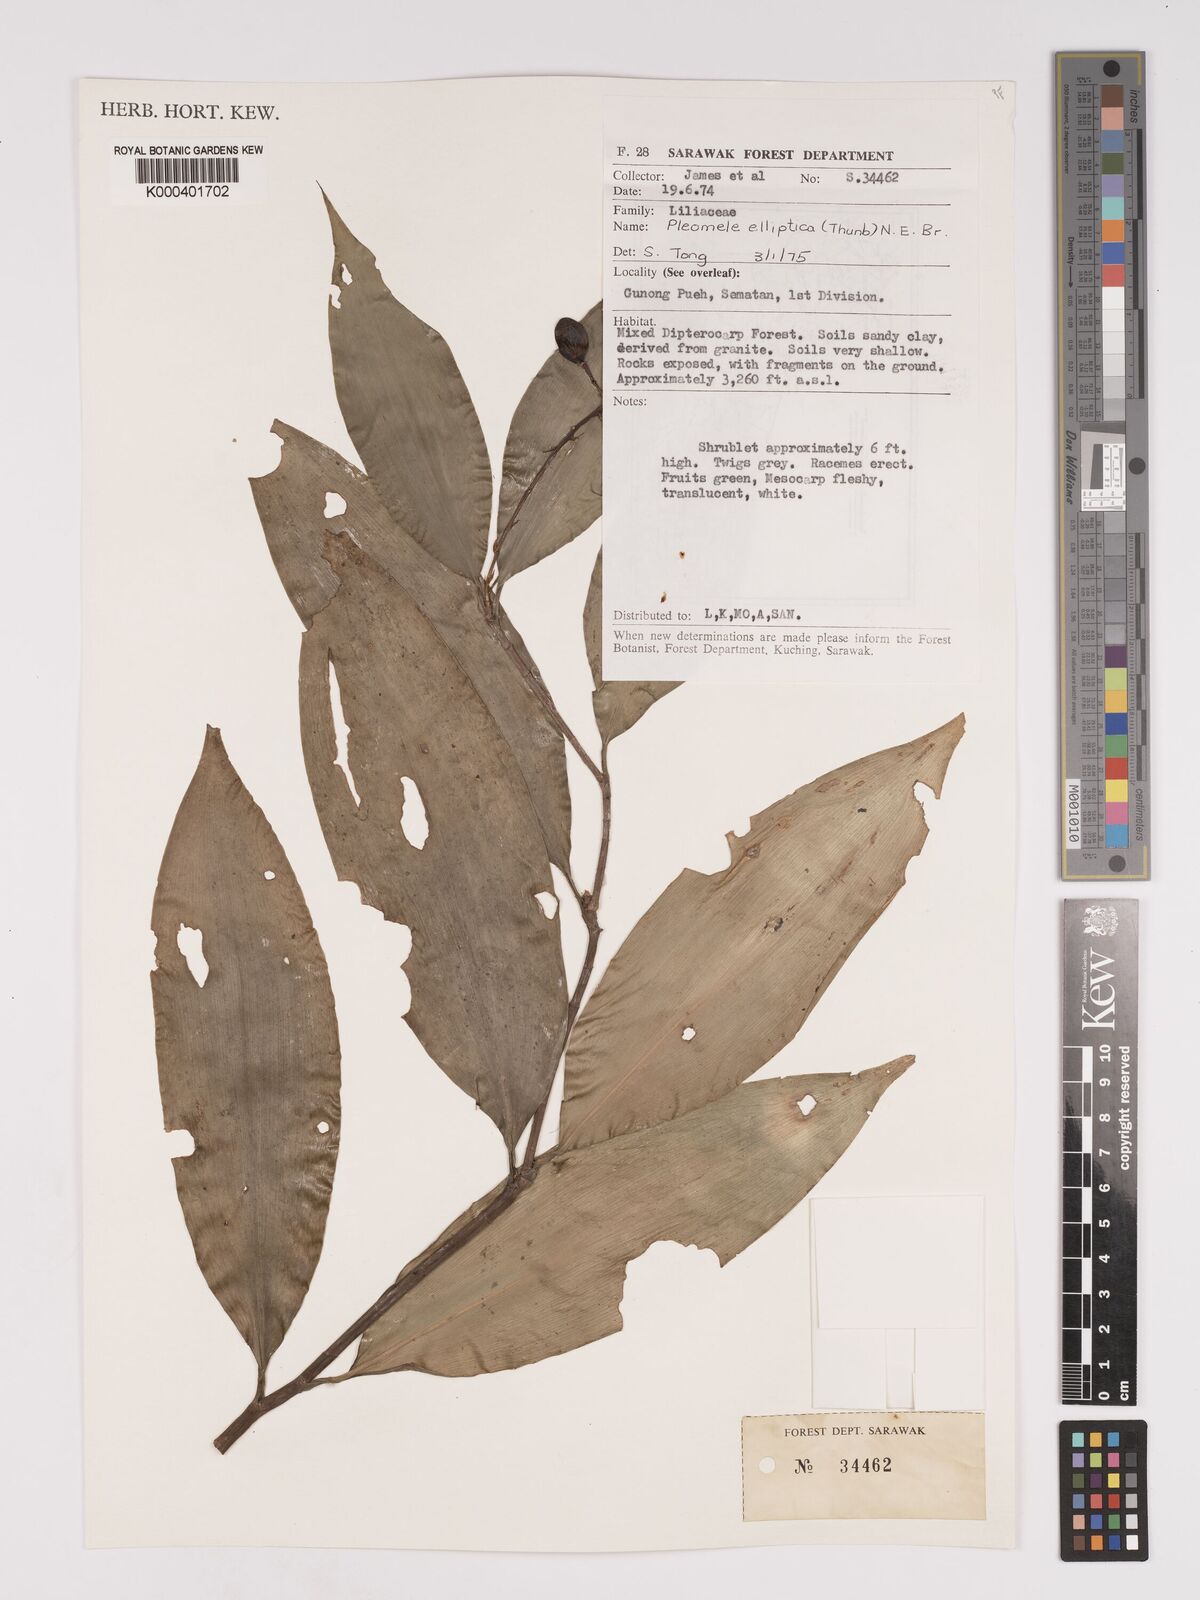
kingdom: Plantae
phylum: Tracheophyta
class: Liliopsida
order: Asparagales
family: Asparagaceae
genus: Dracaena
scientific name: Dracaena elliptica
